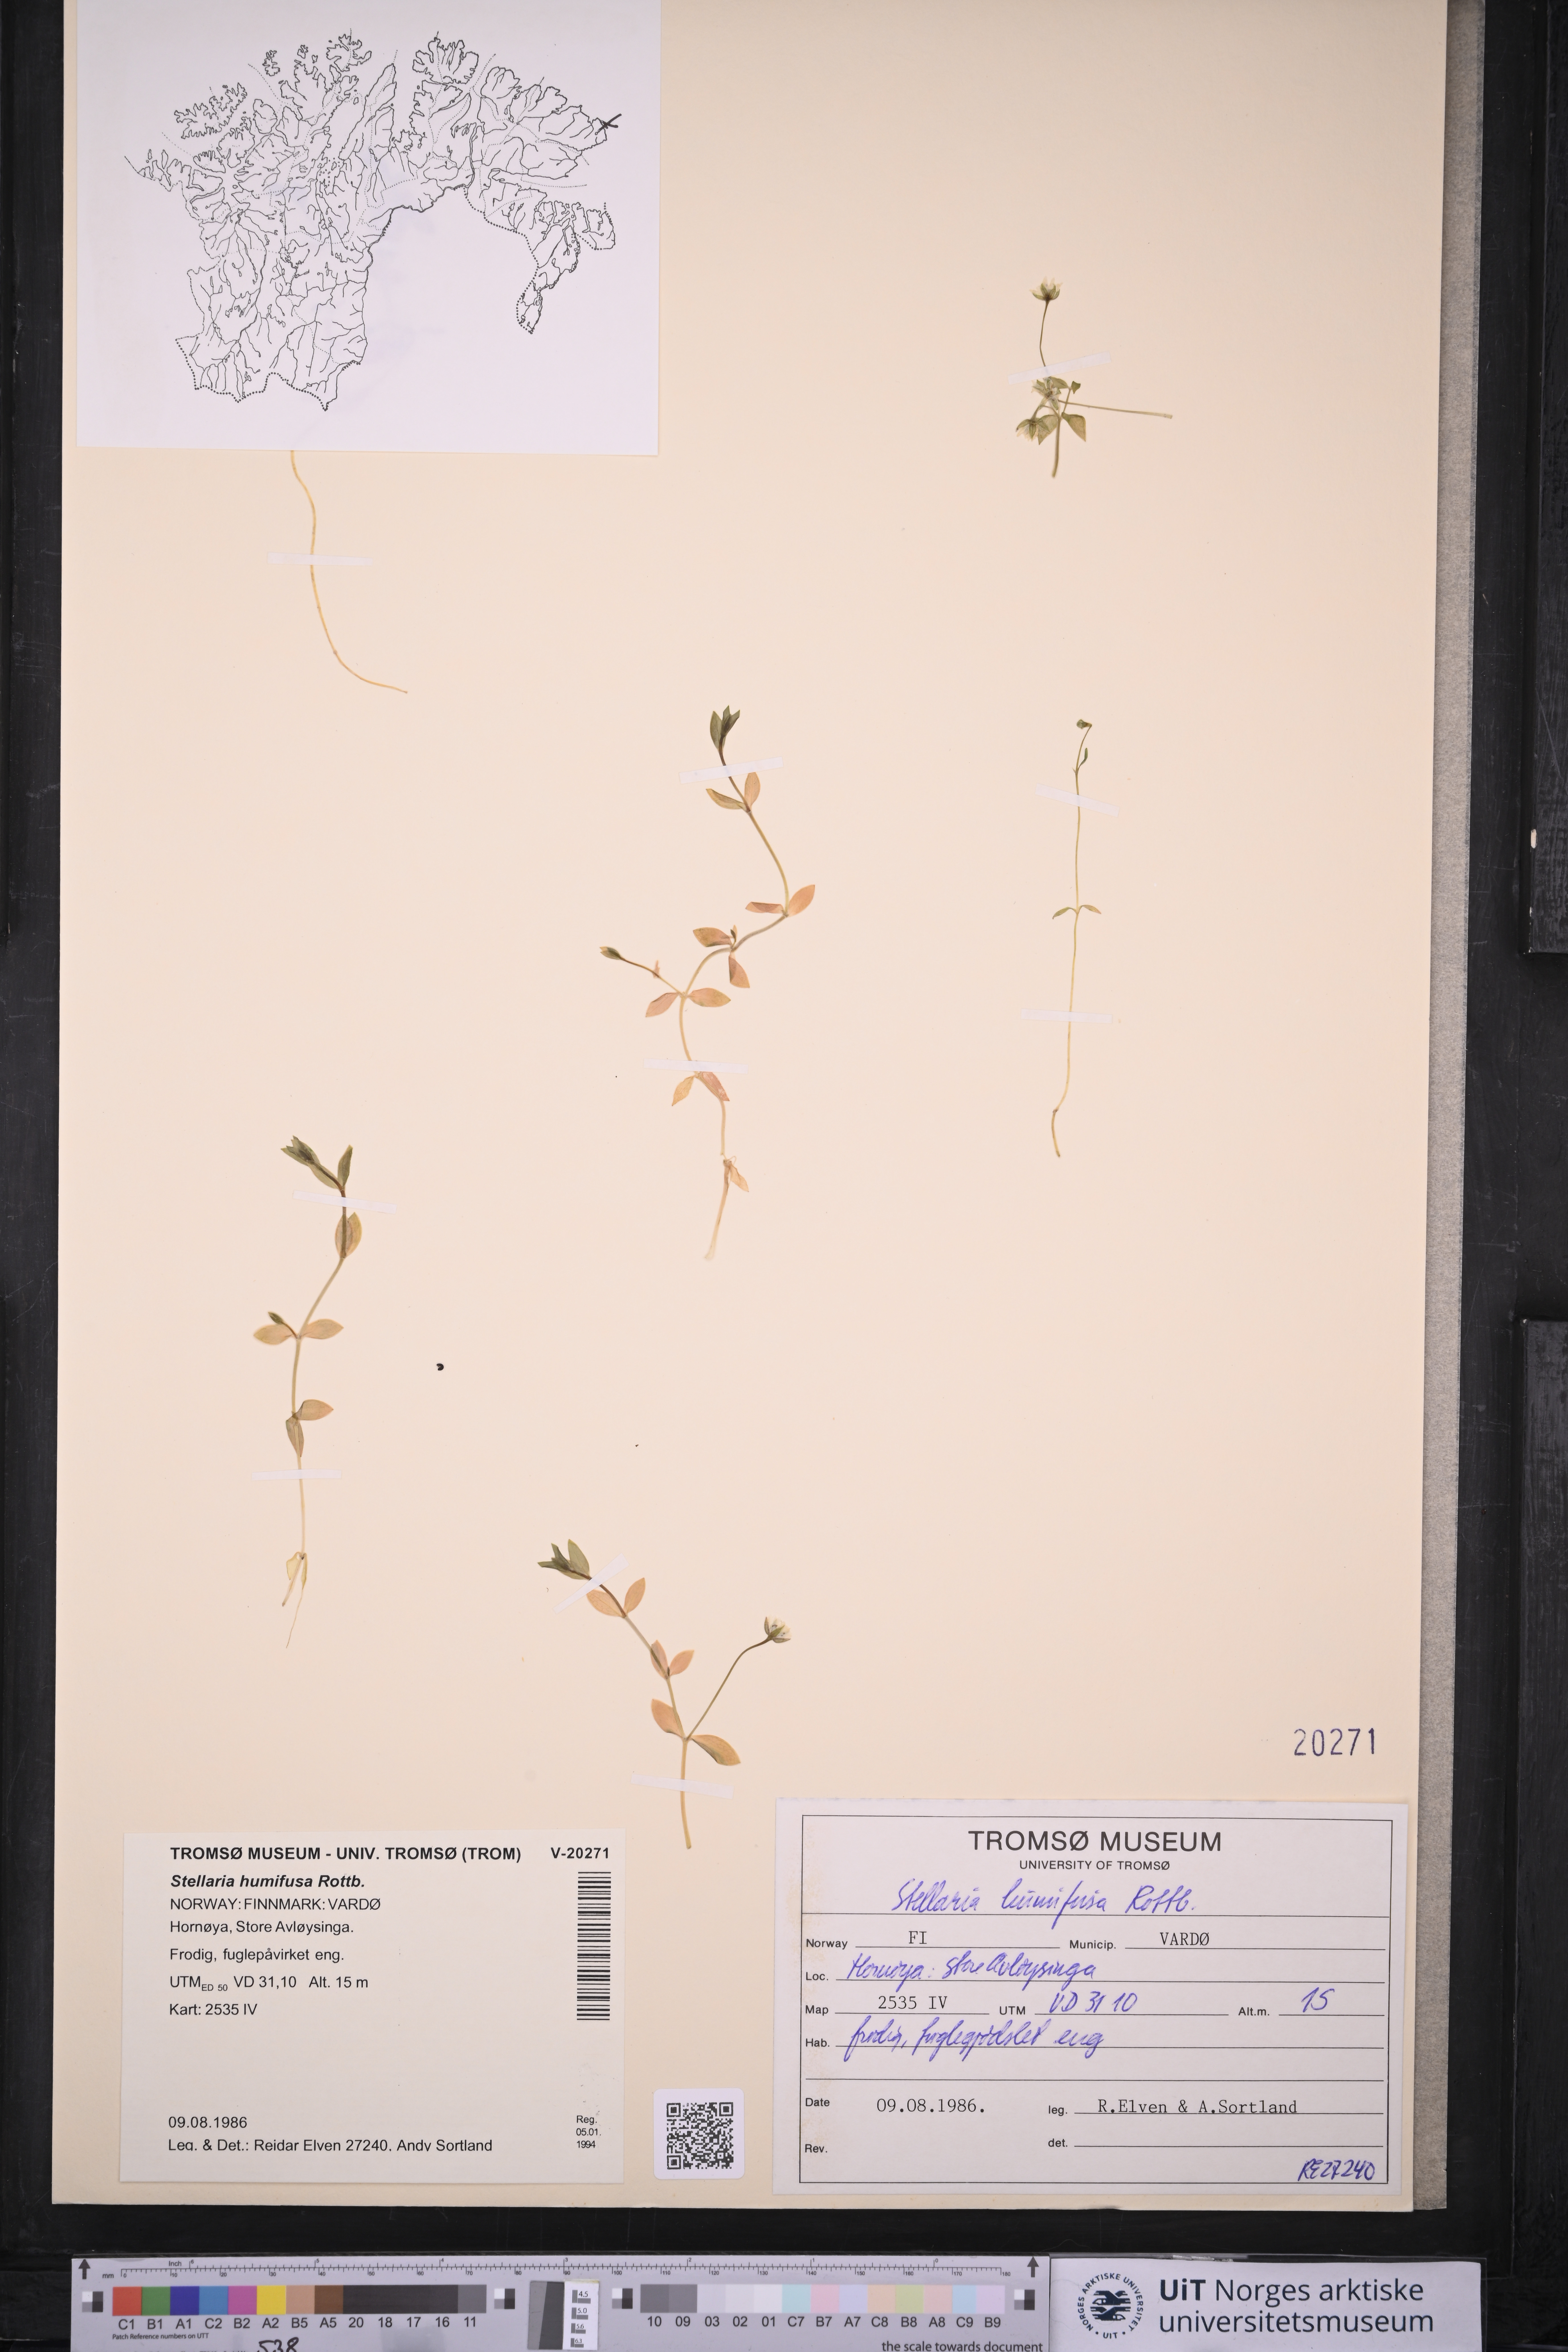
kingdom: Plantae
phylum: Tracheophyta
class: Magnoliopsida
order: Caryophyllales
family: Caryophyllaceae
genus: Stellaria
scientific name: Stellaria humifusa
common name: Creeping starwort
